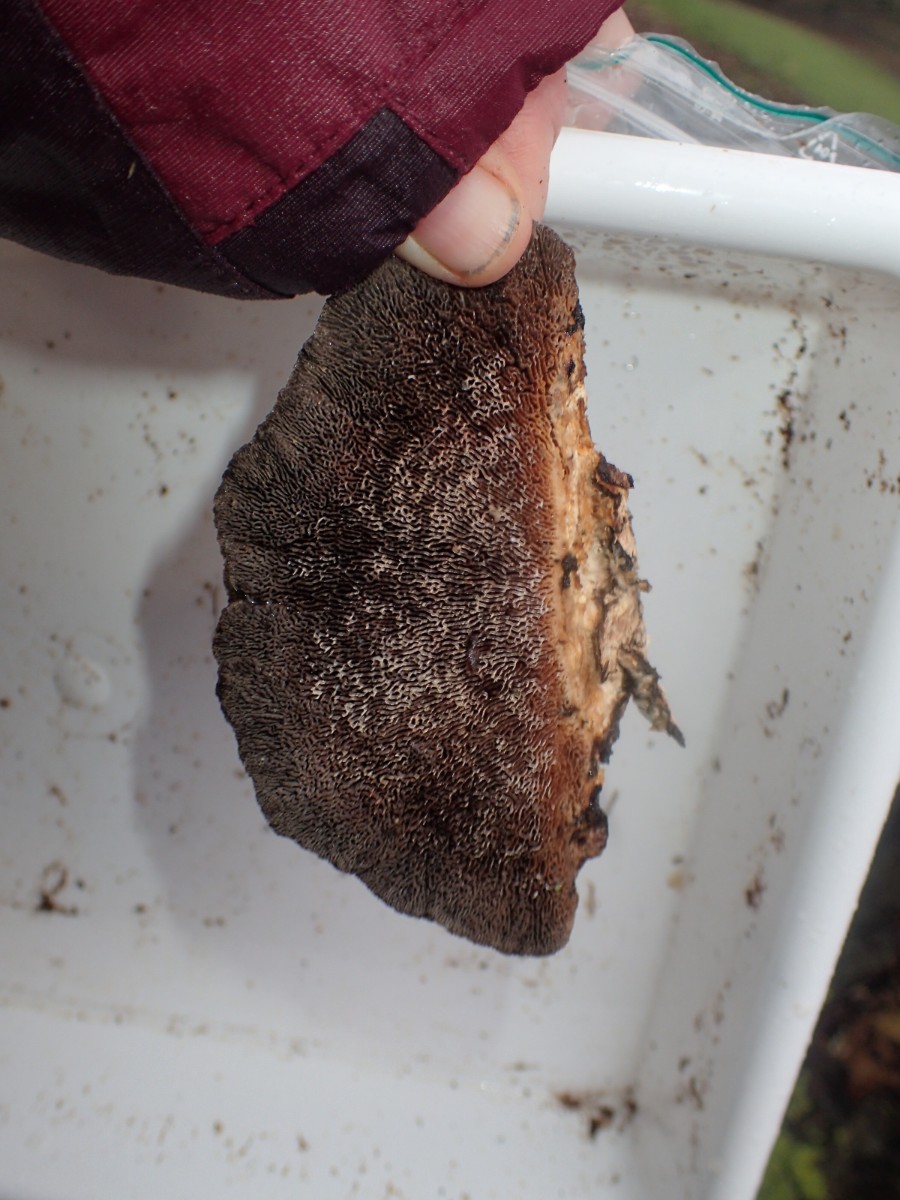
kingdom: Fungi
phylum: Basidiomycota
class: Agaricomycetes
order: Polyporales
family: Polyporaceae
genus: Daedaleopsis
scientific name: Daedaleopsis confragosa
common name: rødmende læderporesvamp
